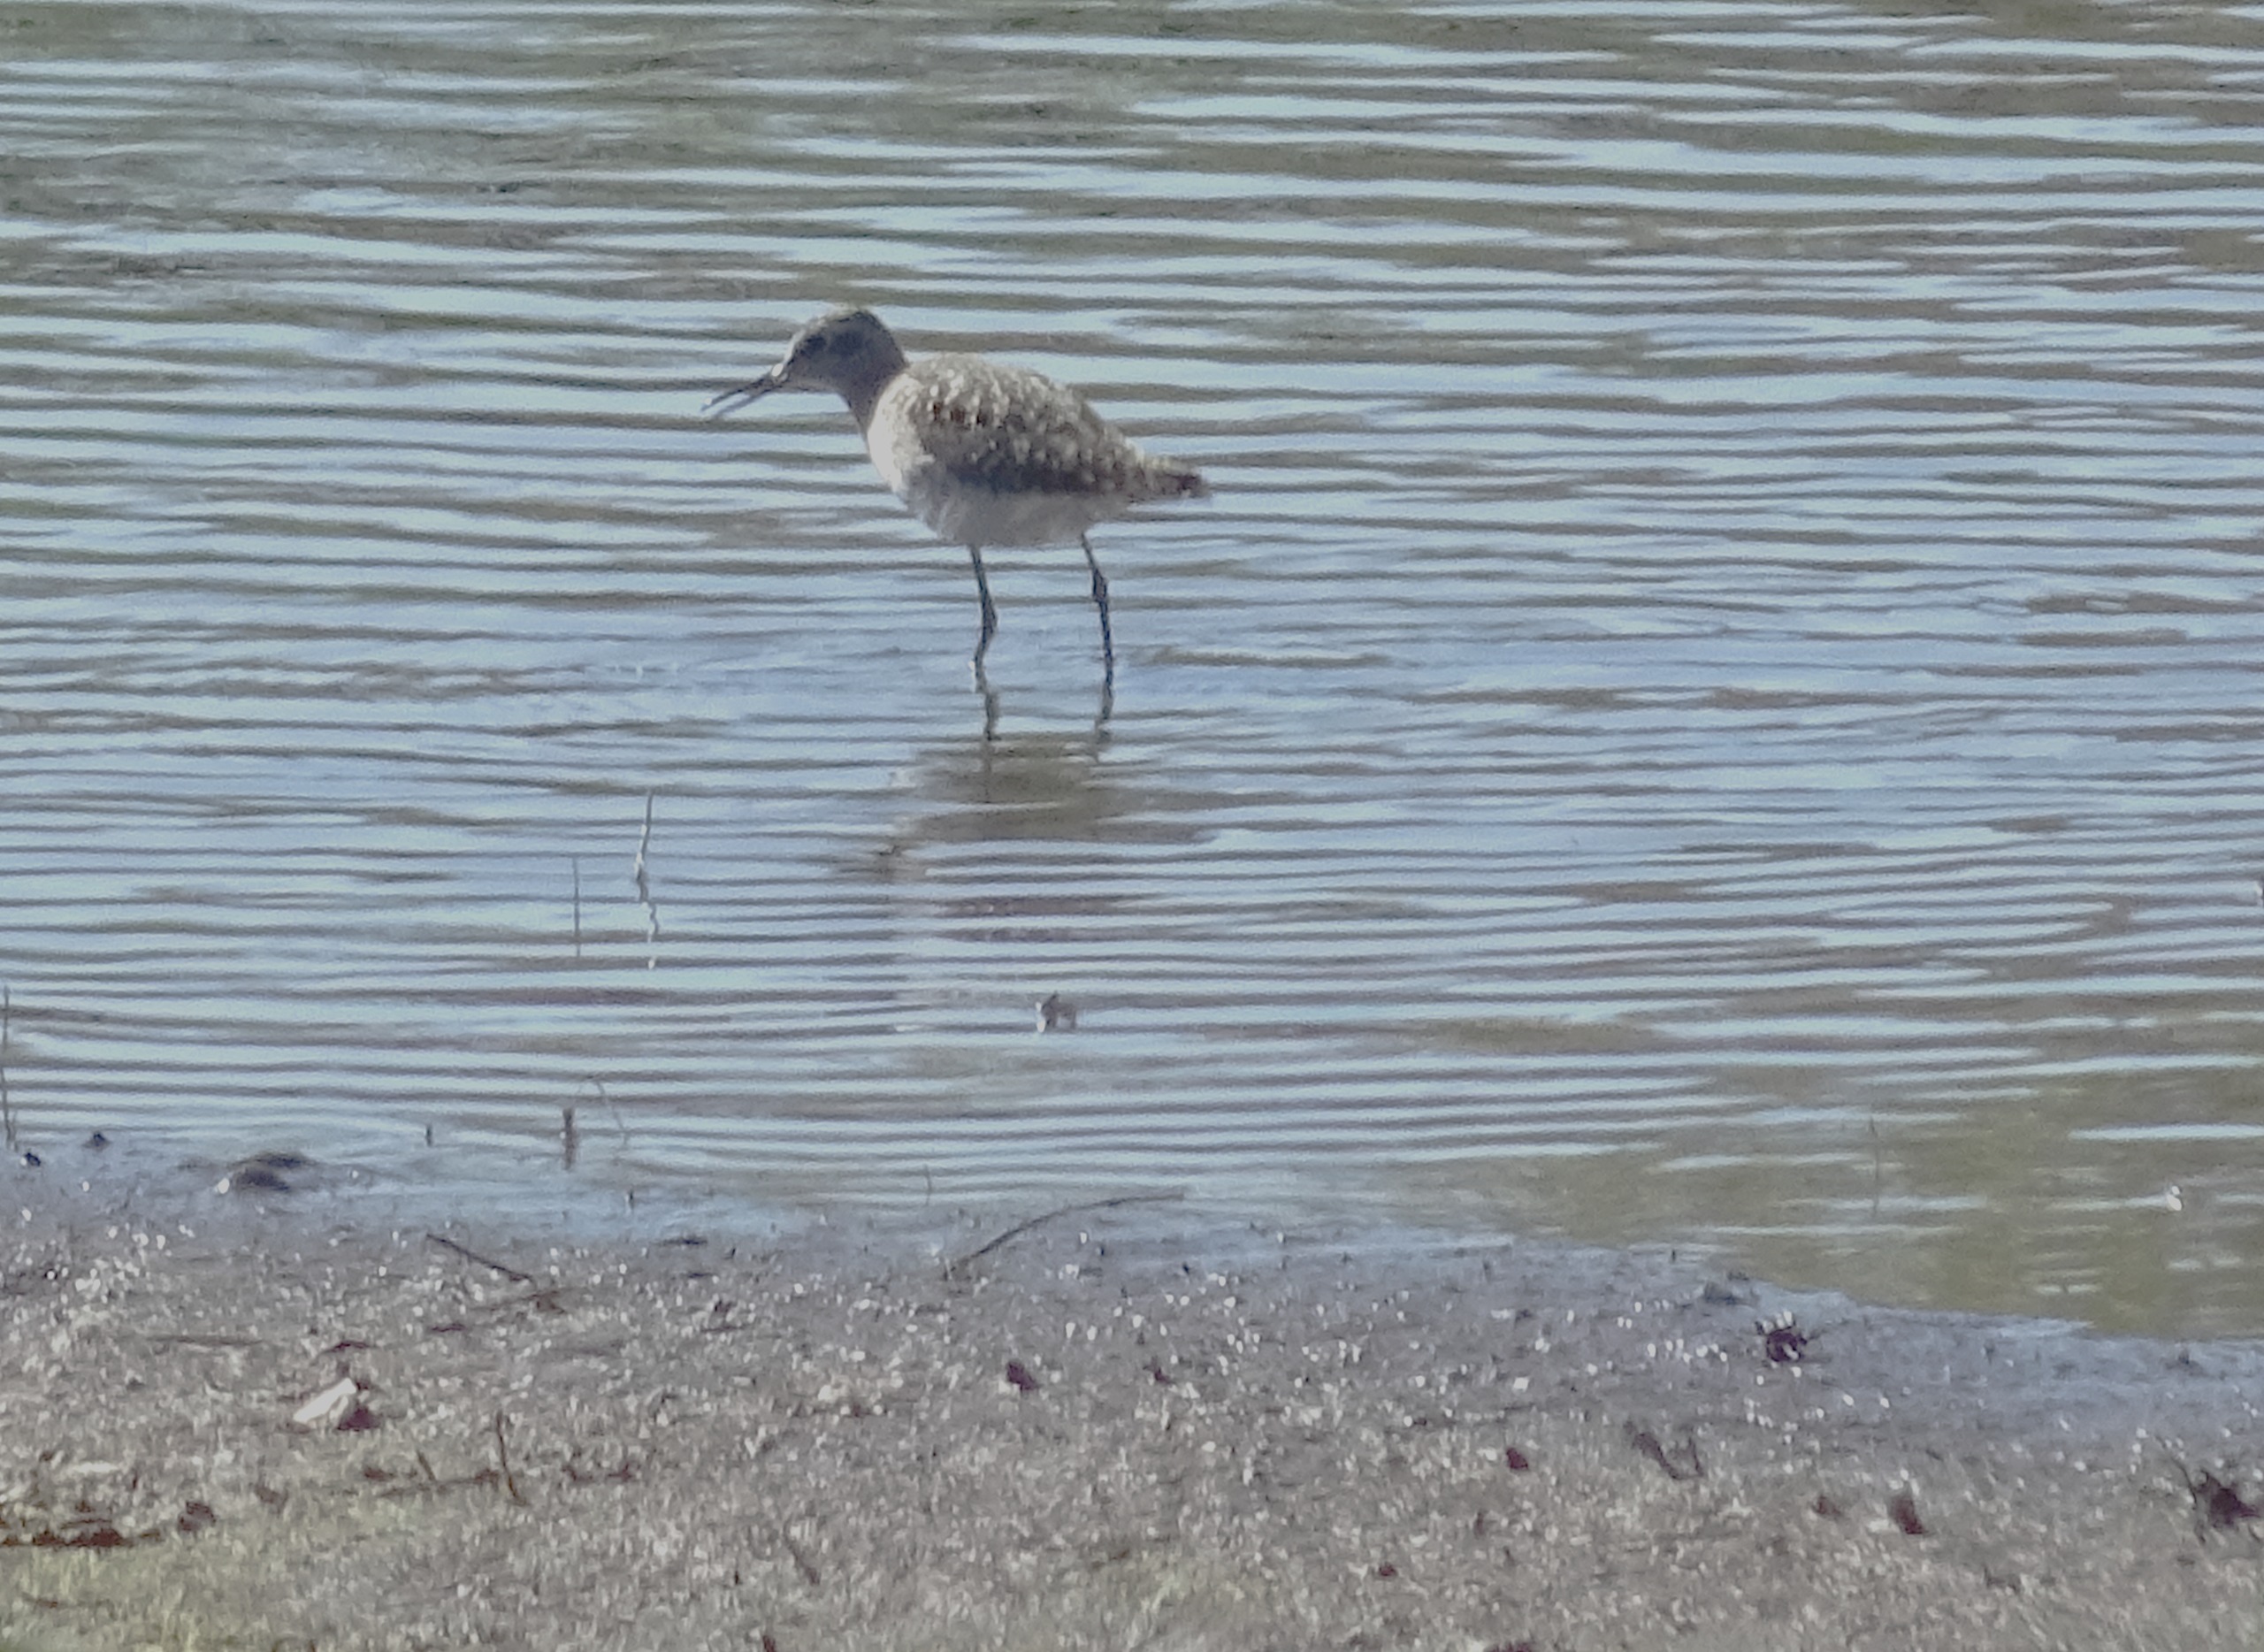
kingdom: Animalia
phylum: Chordata
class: Aves
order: Charadriiformes
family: Scolopacidae
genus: Tringa
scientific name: Tringa glareola
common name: Tinksmed
